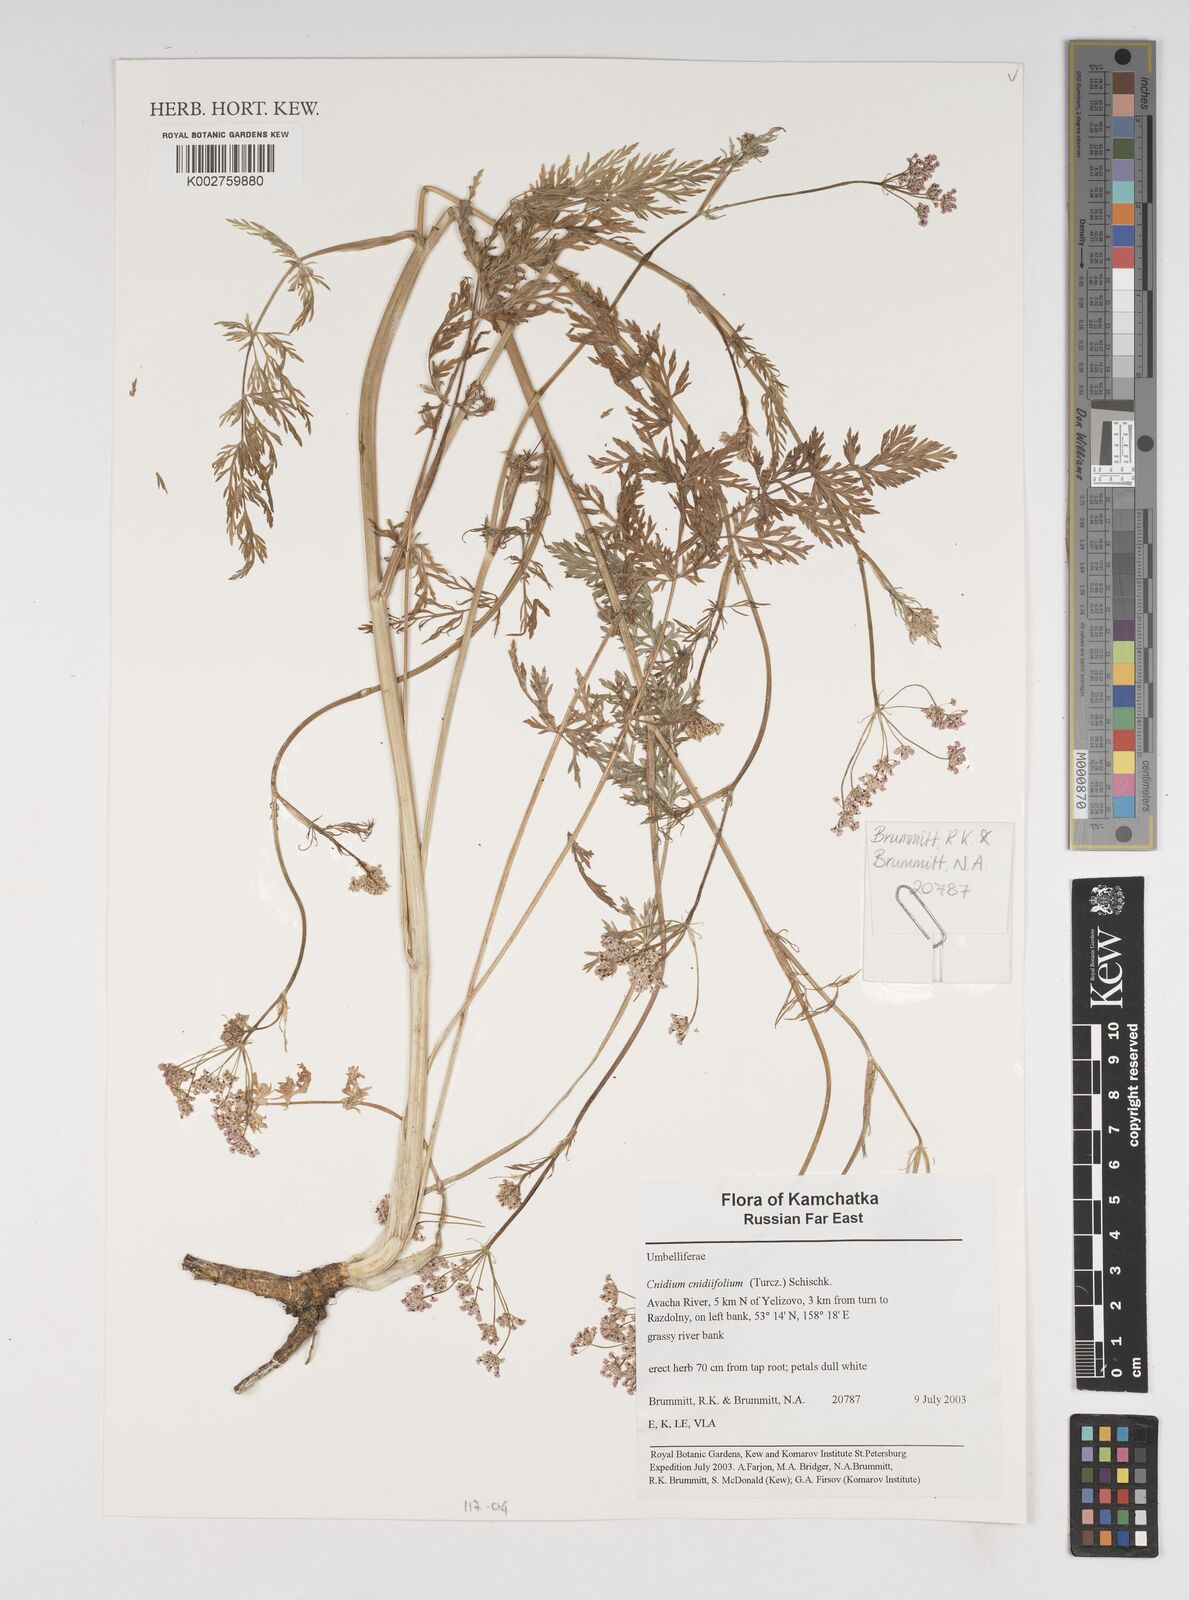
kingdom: Plantae
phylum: Tracheophyta
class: Magnoliopsida
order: Apiales
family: Apiaceae
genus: Cnidium
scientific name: Cnidium cnidiifolium
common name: Northern hemlock-parsley
